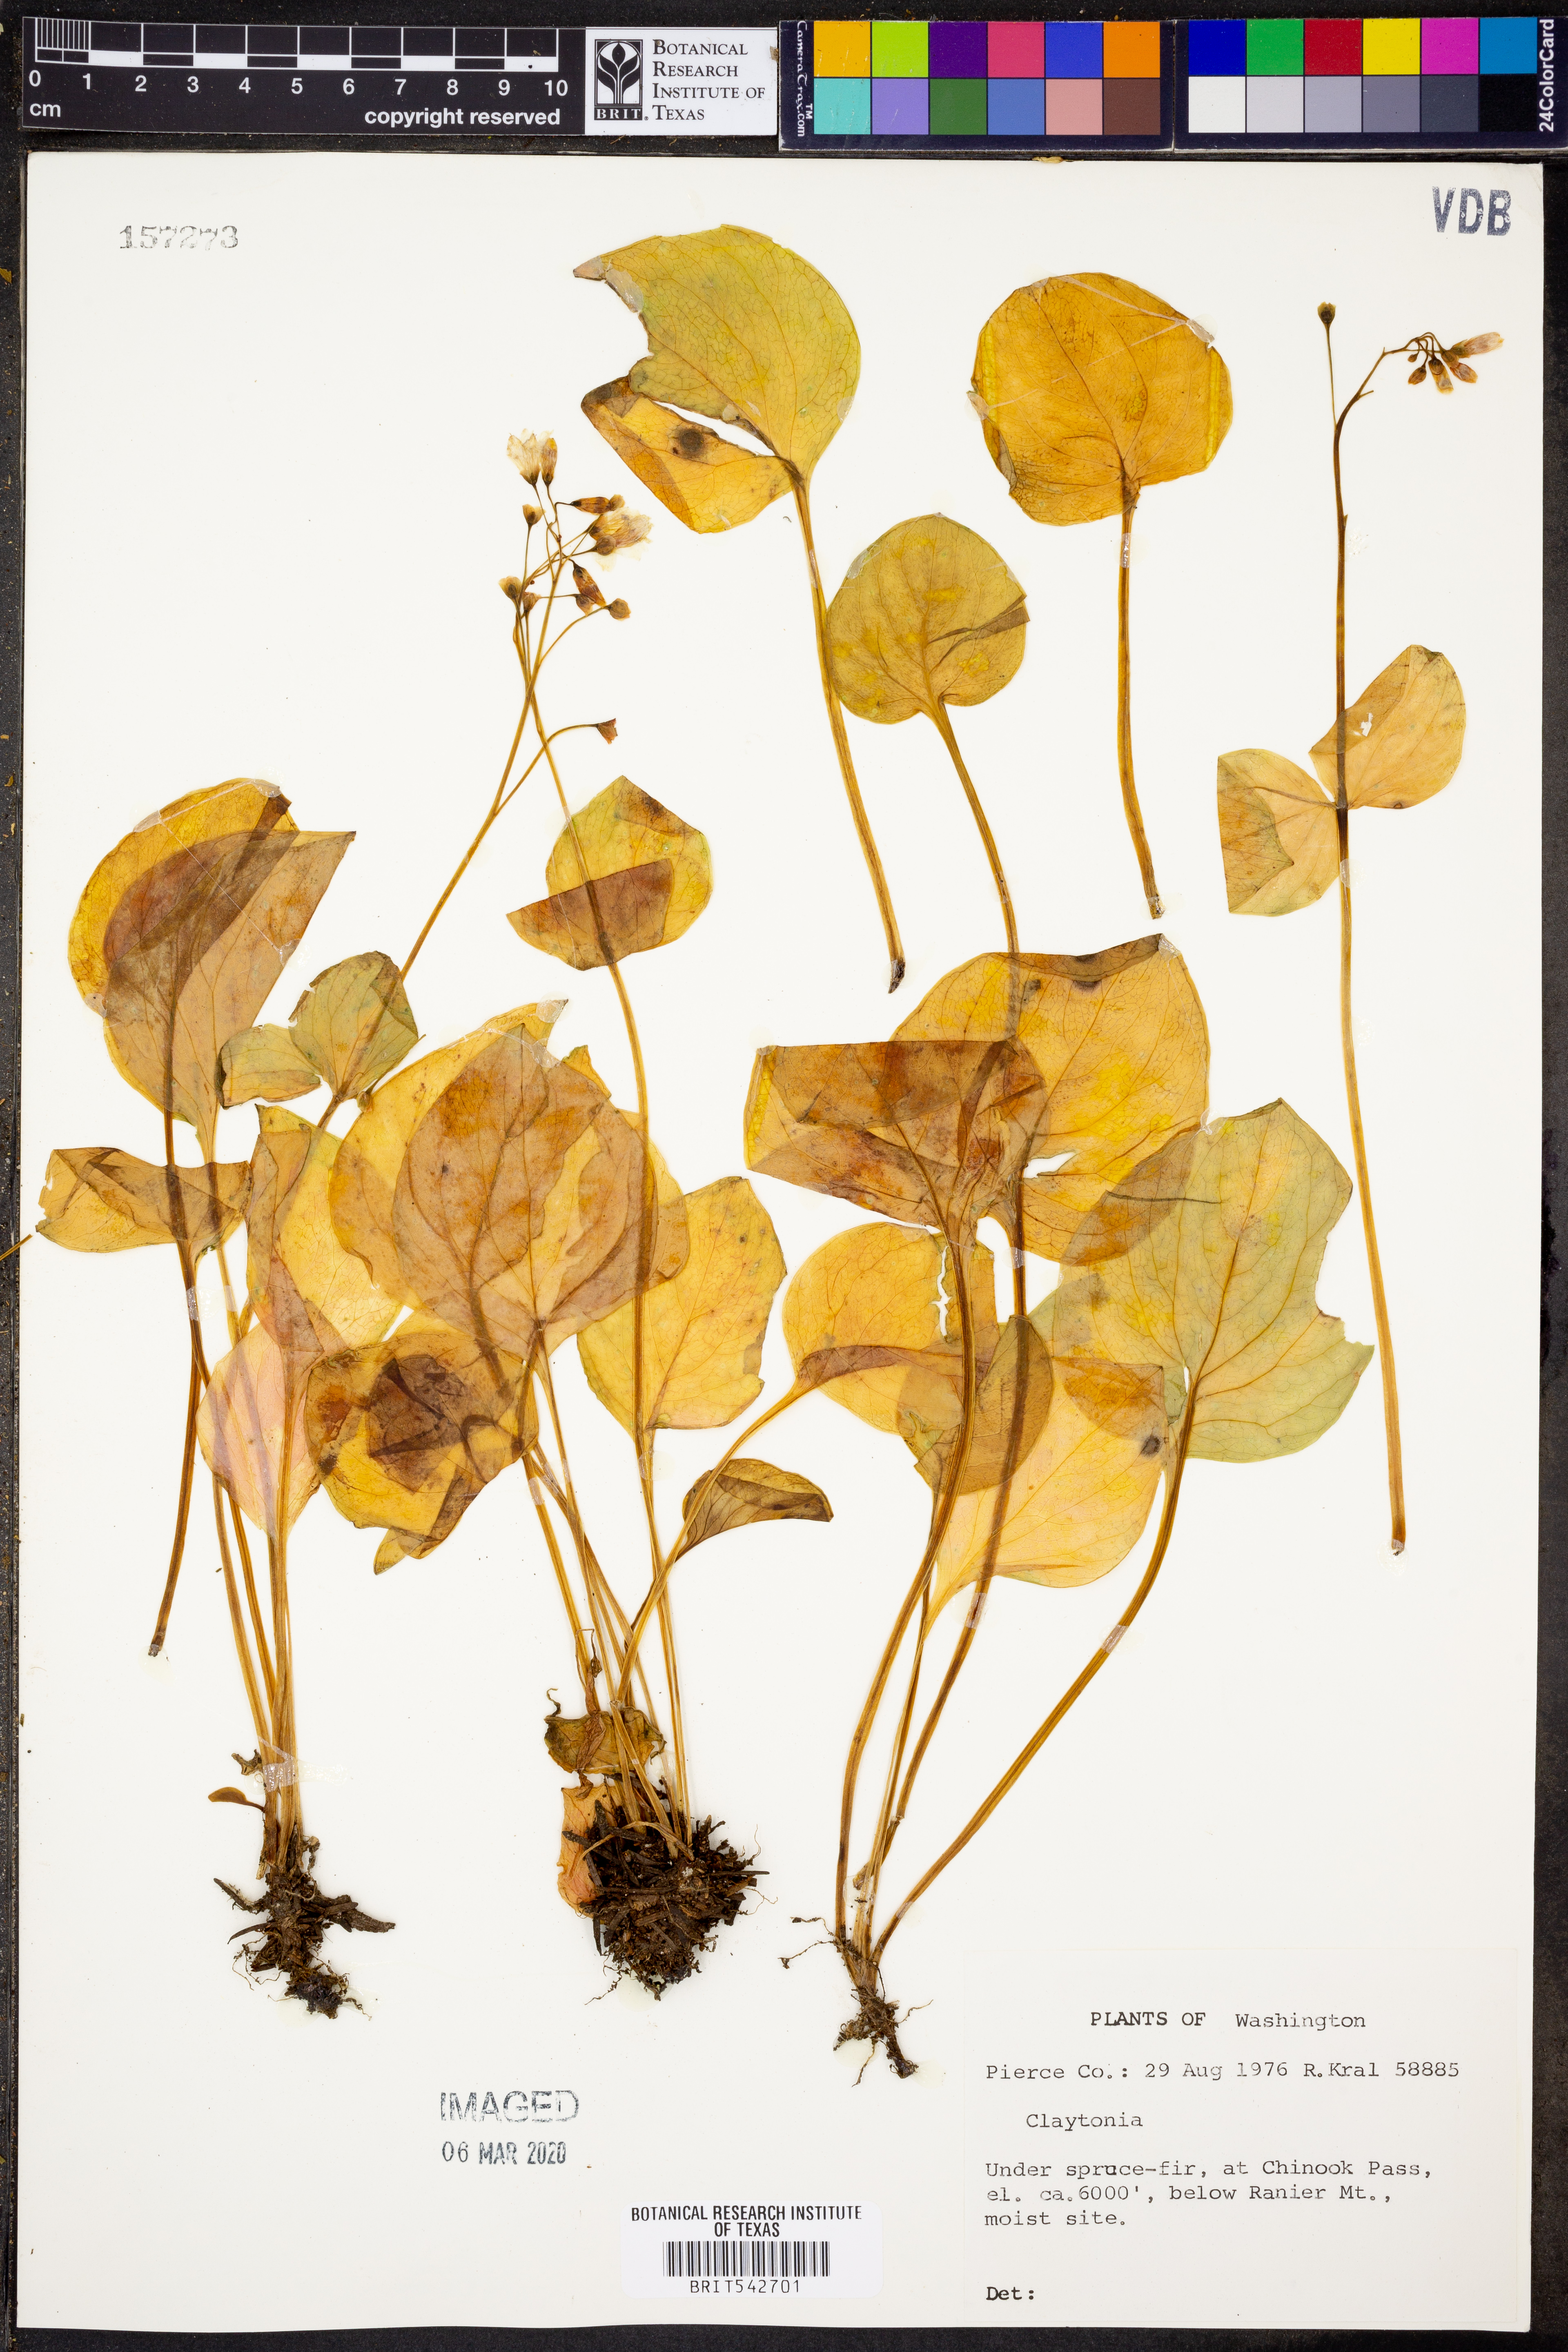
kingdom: Plantae
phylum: Tracheophyta
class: Magnoliopsida
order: Caryophyllales
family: Montiaceae
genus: Claytonia
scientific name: Claytonia
